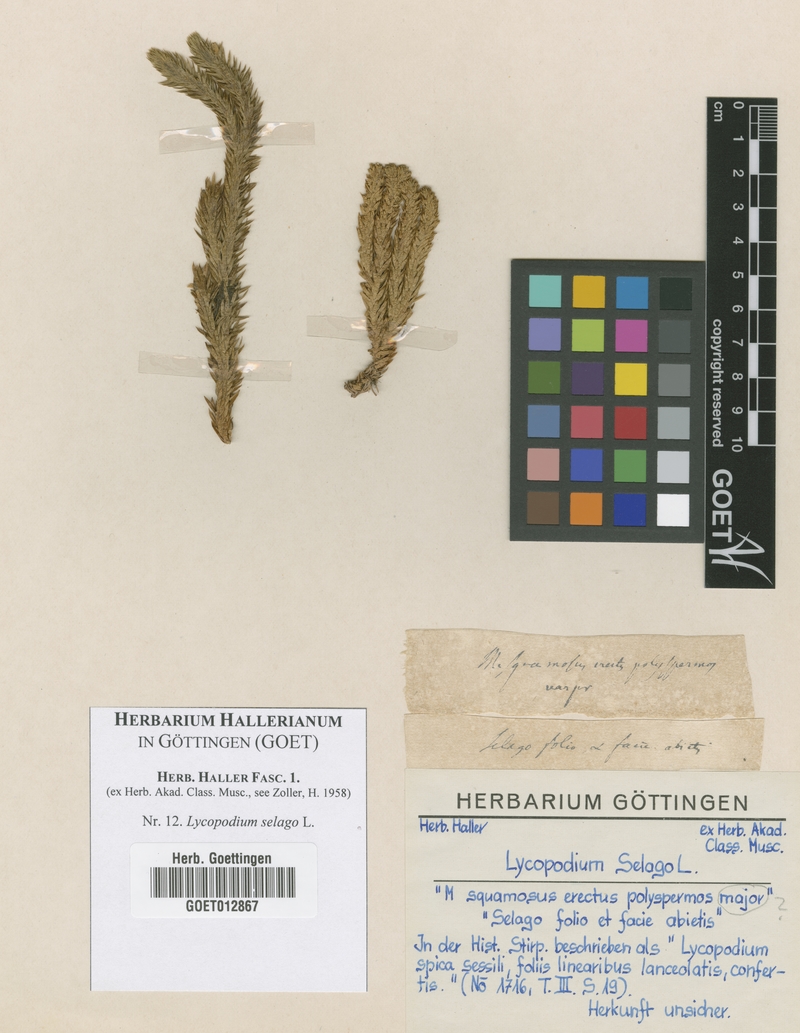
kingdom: Plantae
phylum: Tracheophyta
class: Lycopodiopsida
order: Lycopodiales
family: Lycopodiaceae
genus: Huperzia
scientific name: Huperzia selago
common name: Northern firmoss
